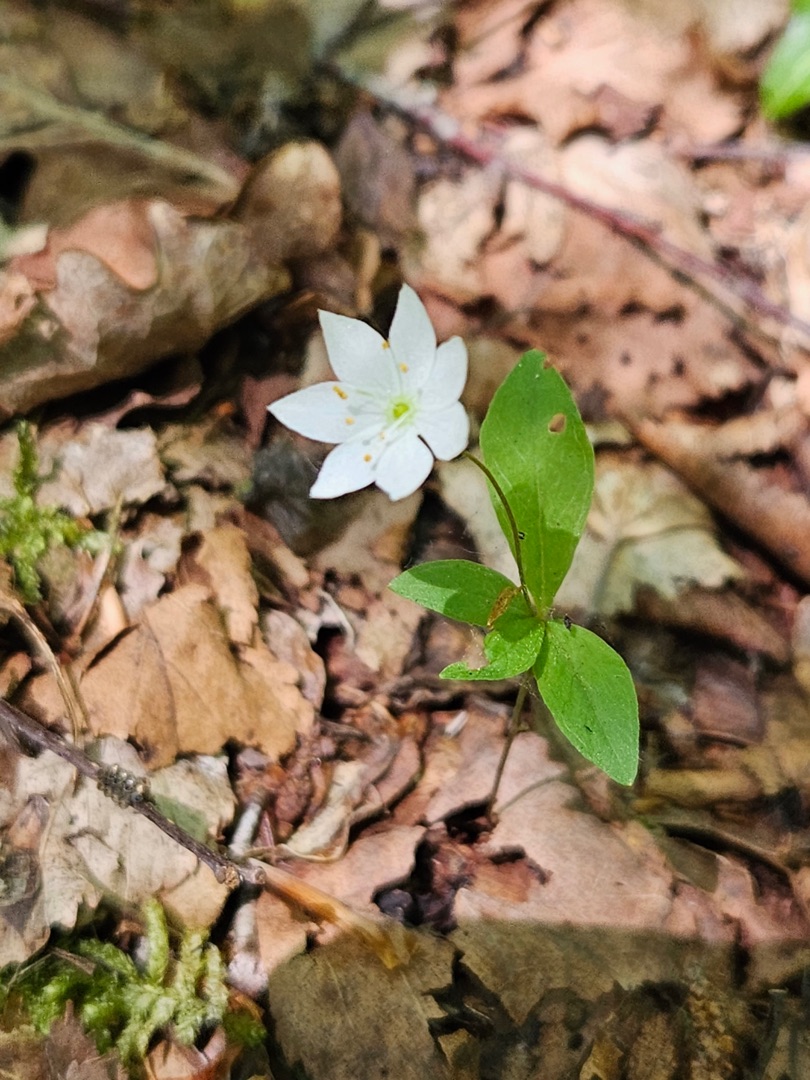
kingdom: Plantae
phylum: Tracheophyta
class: Magnoliopsida
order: Ericales
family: Primulaceae
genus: Lysimachia
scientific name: Lysimachia europaea
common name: Skovstjerne
